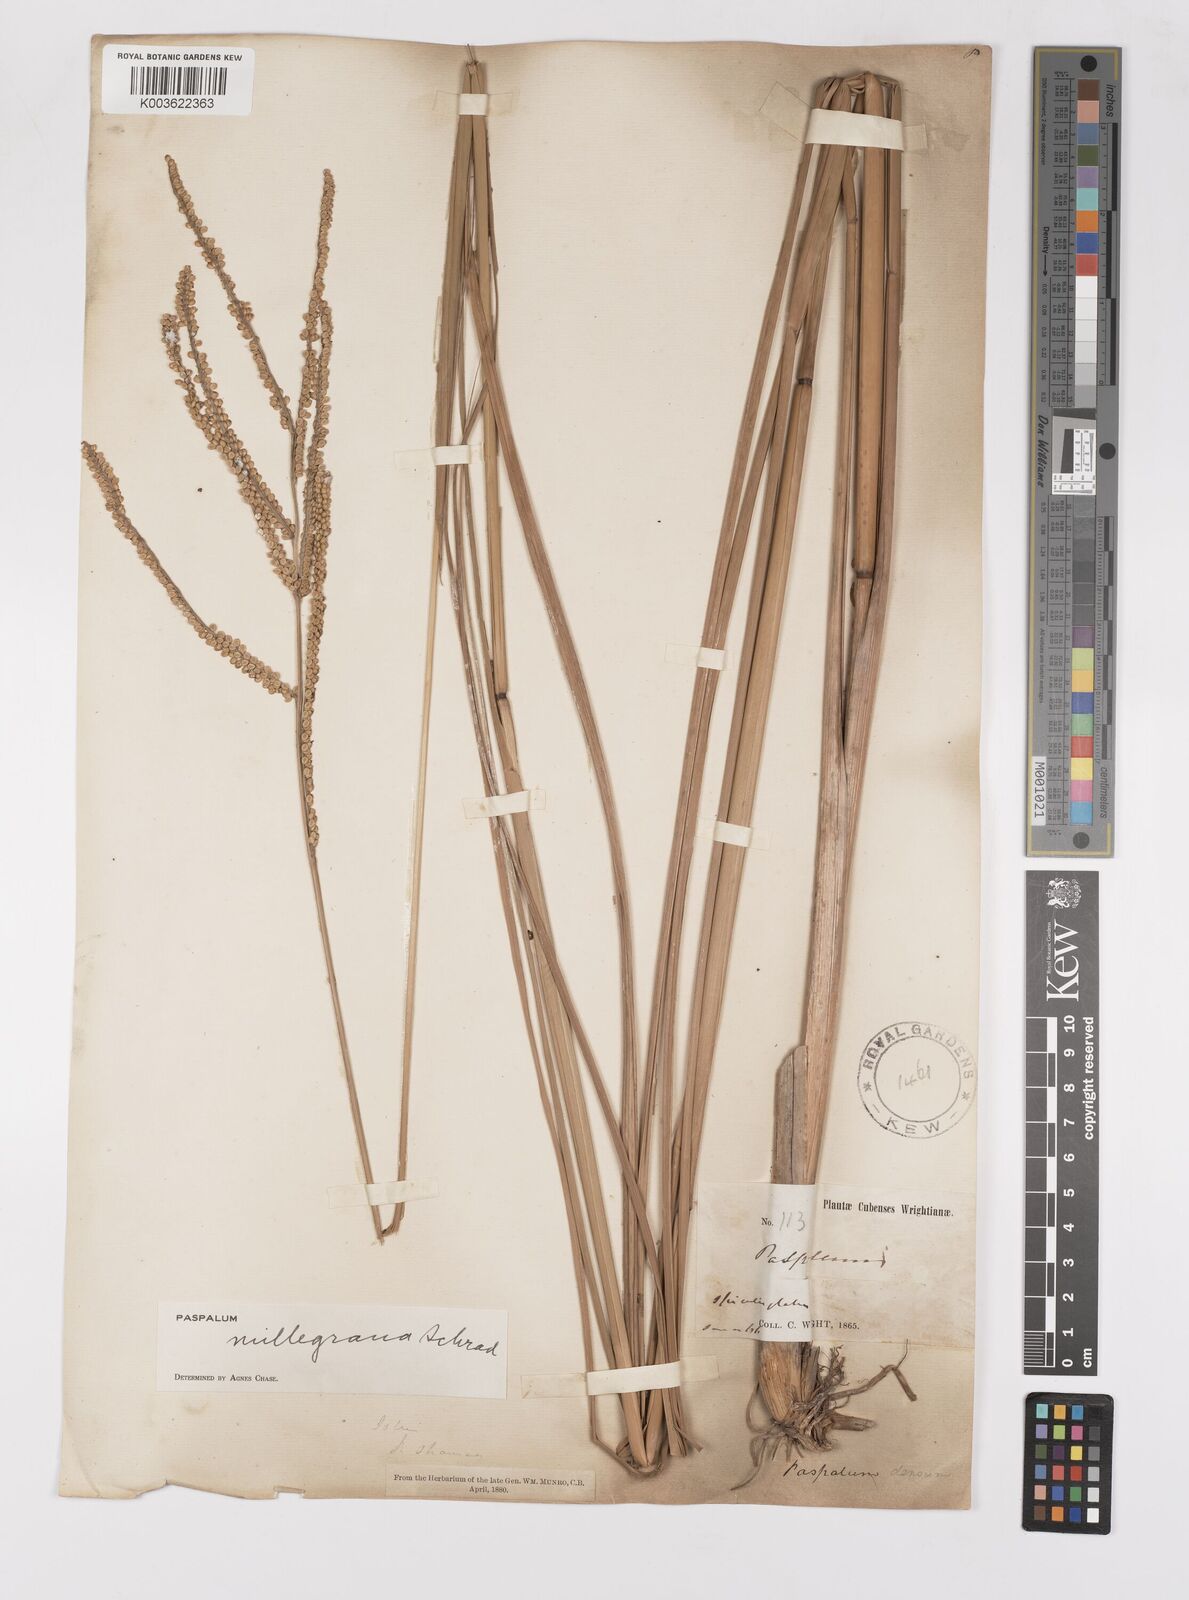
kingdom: Plantae
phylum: Tracheophyta
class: Liliopsida
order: Poales
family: Poaceae
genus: Paspalum
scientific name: Paspalum millegranum
